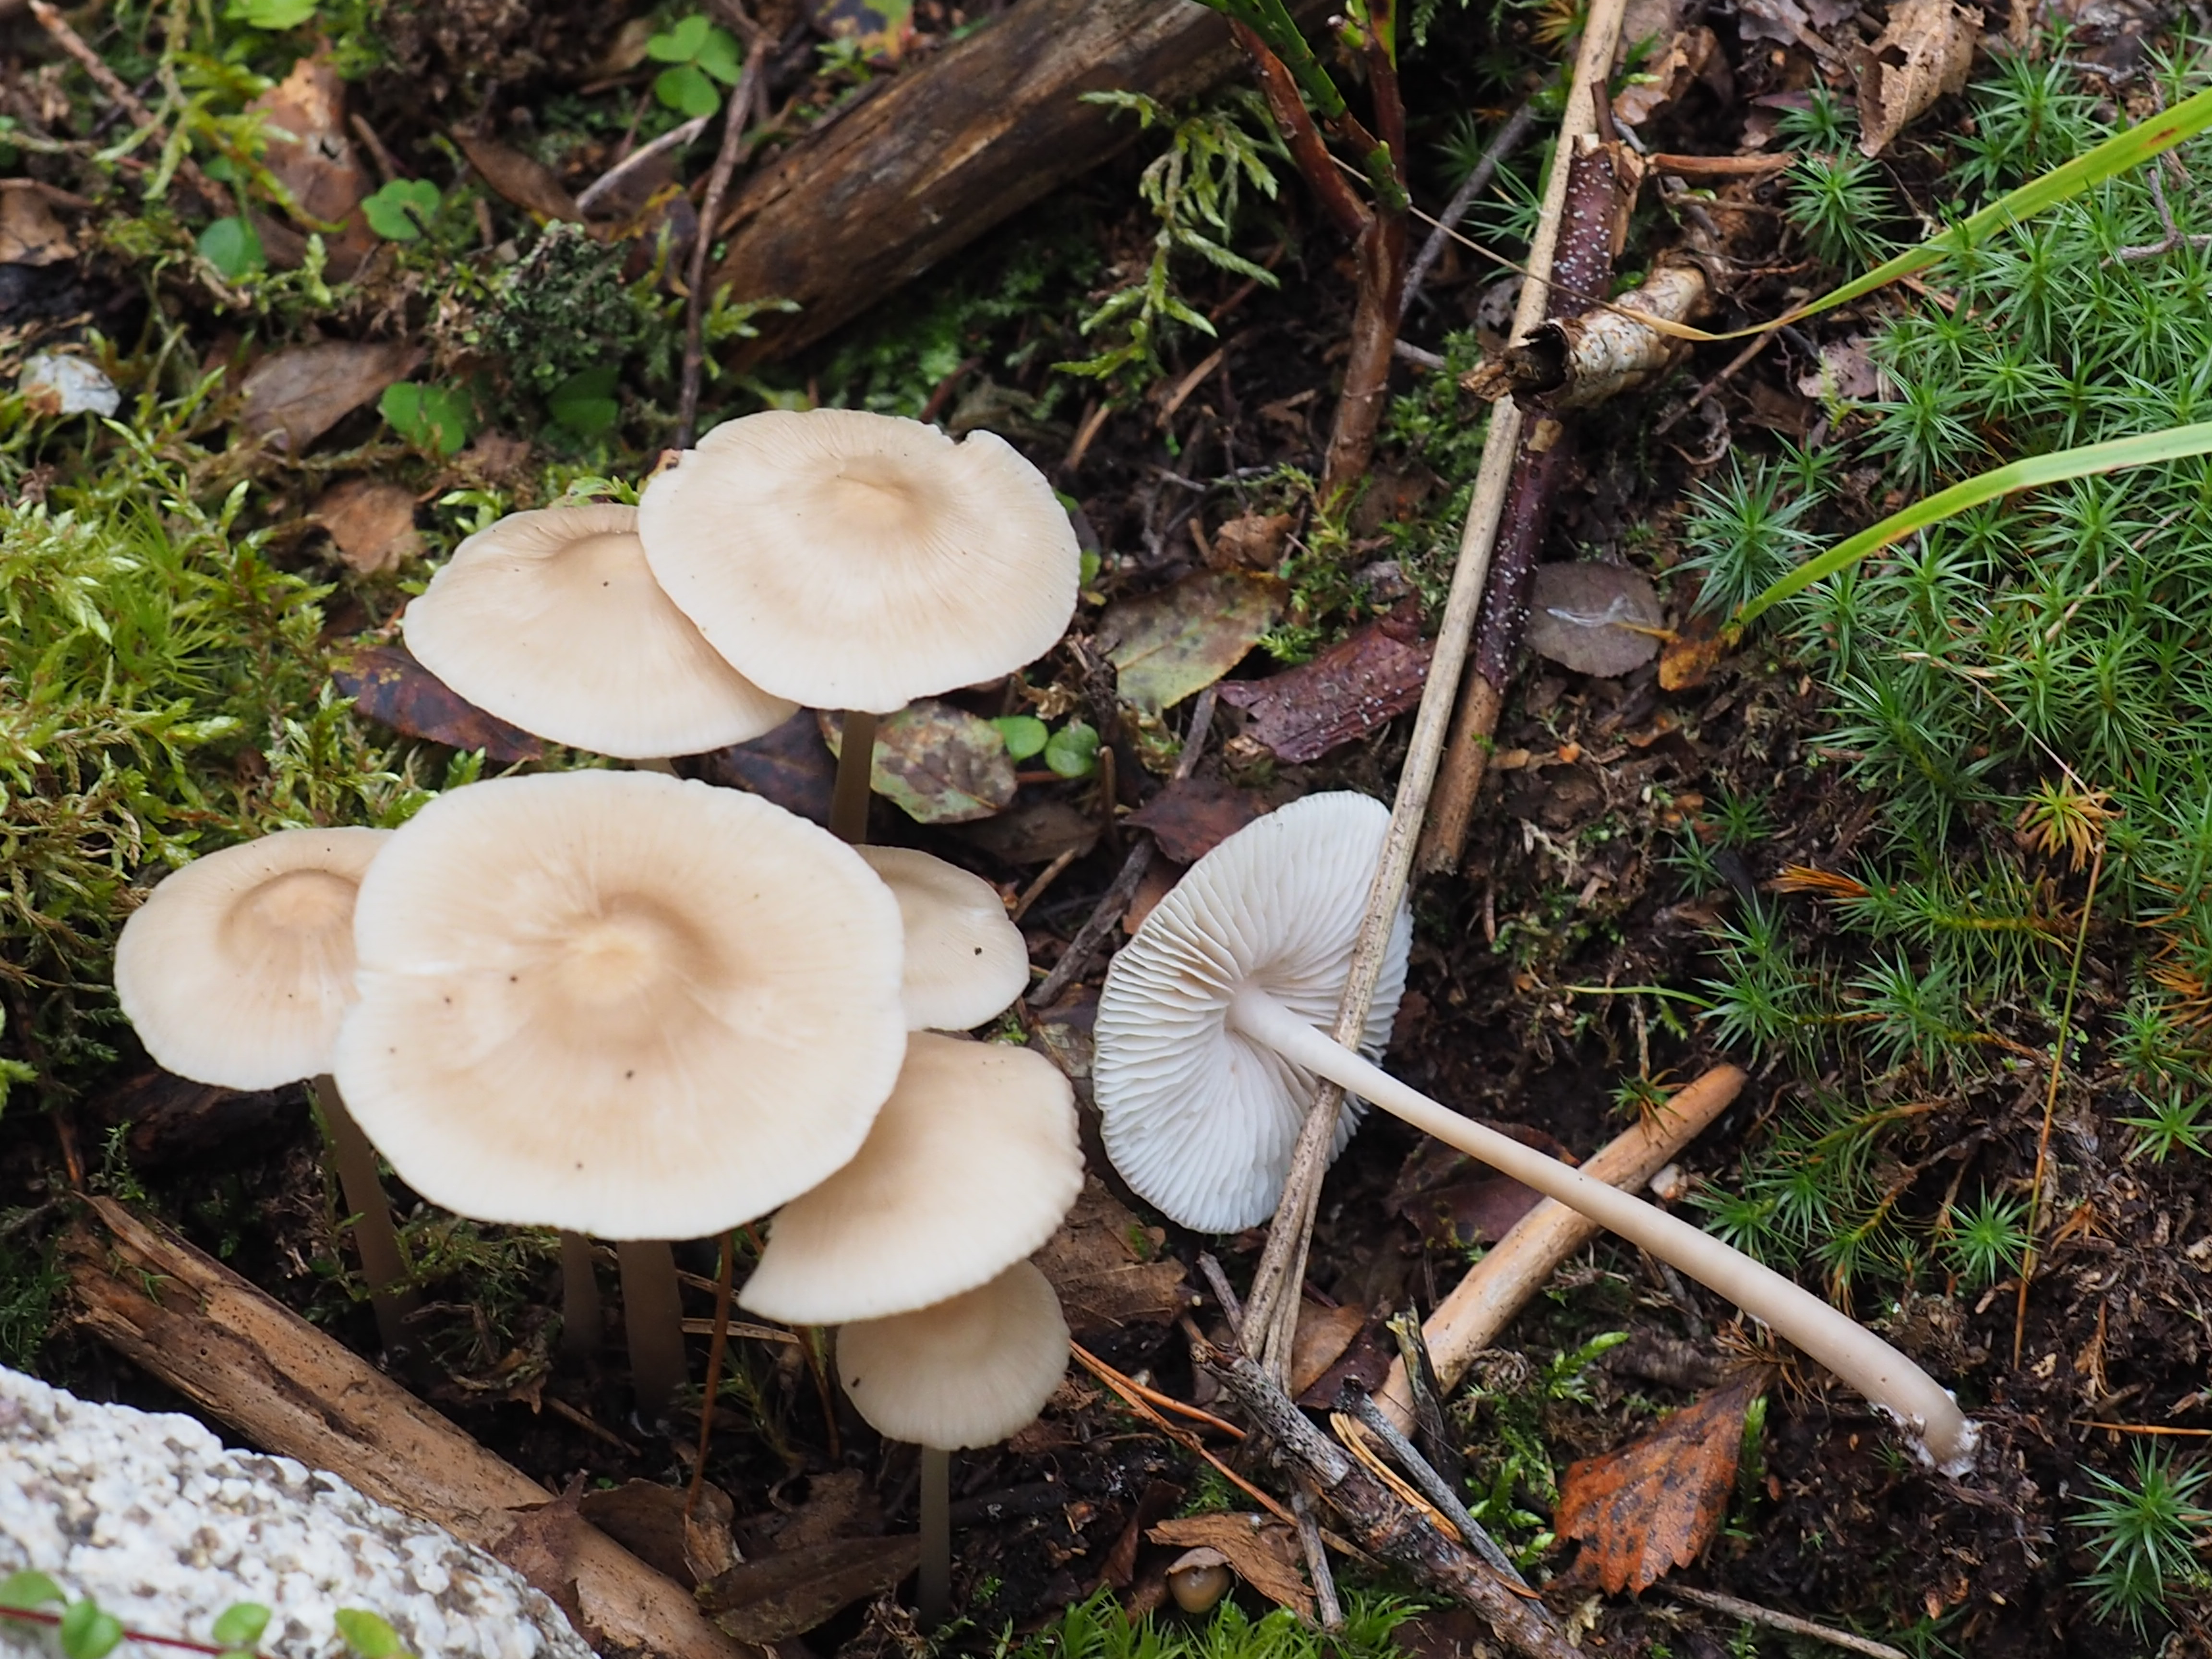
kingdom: Fungi
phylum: Basidiomycota
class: Agaricomycetes
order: Agaricales
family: Mycenaceae
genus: Mycena
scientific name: Mycena galericulata
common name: Bonnet mycena
